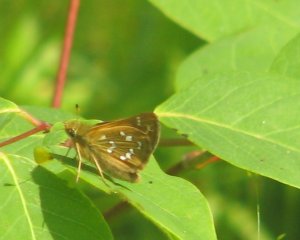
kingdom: Animalia
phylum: Arthropoda
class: Insecta
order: Lepidoptera
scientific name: Lepidoptera
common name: Butterflies
